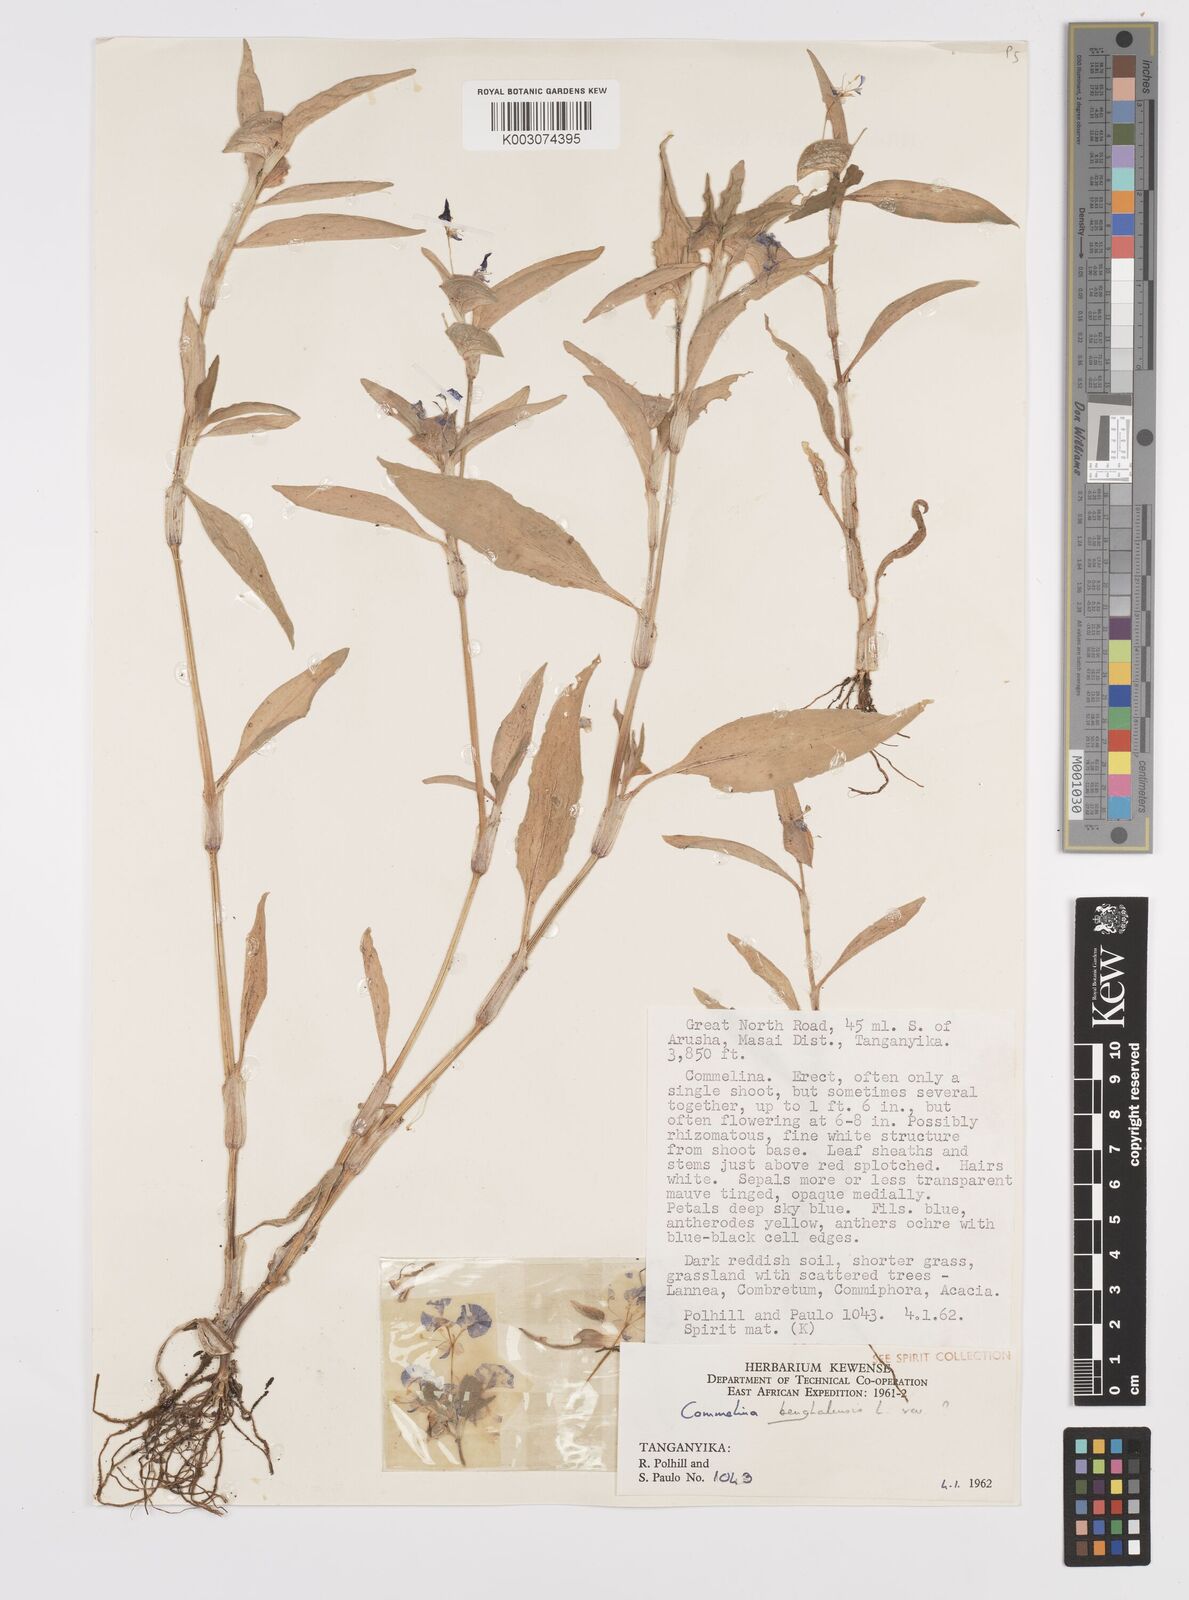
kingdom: Plantae
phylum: Tracheophyta
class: Liliopsida
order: Commelinales
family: Commelinaceae
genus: Commelina
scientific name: Commelina benghalensis
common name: Jio
